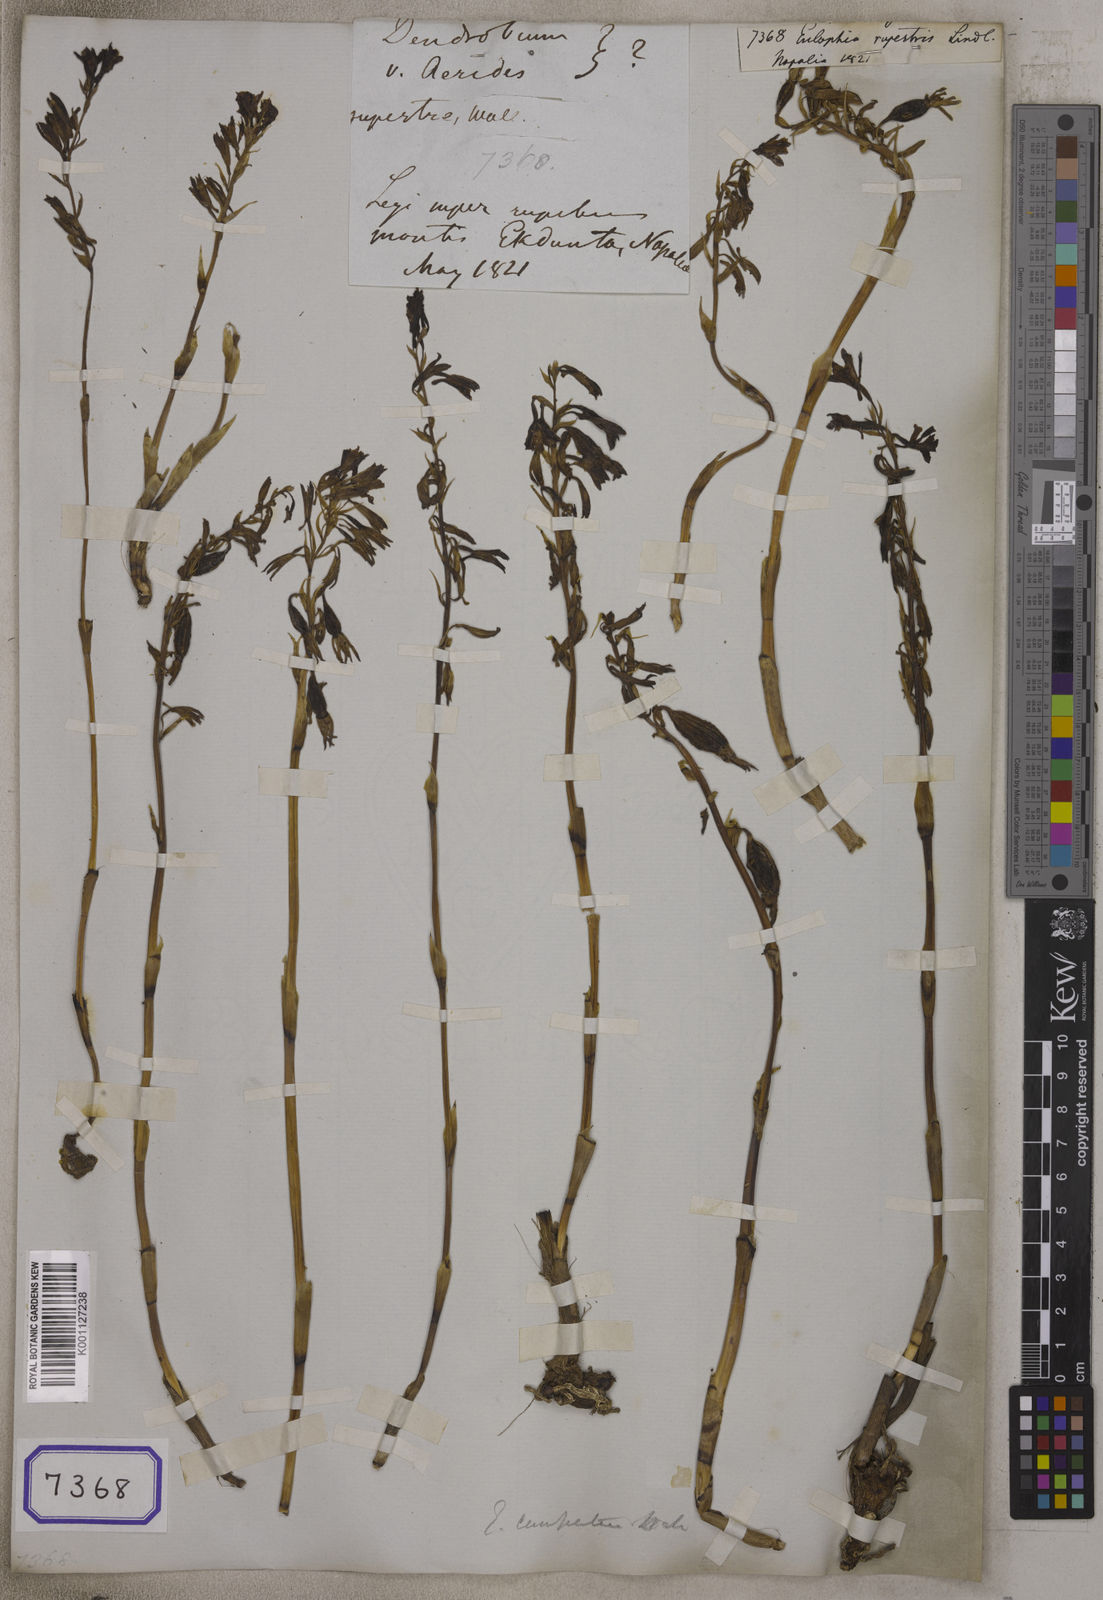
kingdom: Plantae
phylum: Tracheophyta
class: Liliopsida
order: Asparagales
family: Orchidaceae
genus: Eulophia
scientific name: Eulophia dabia
